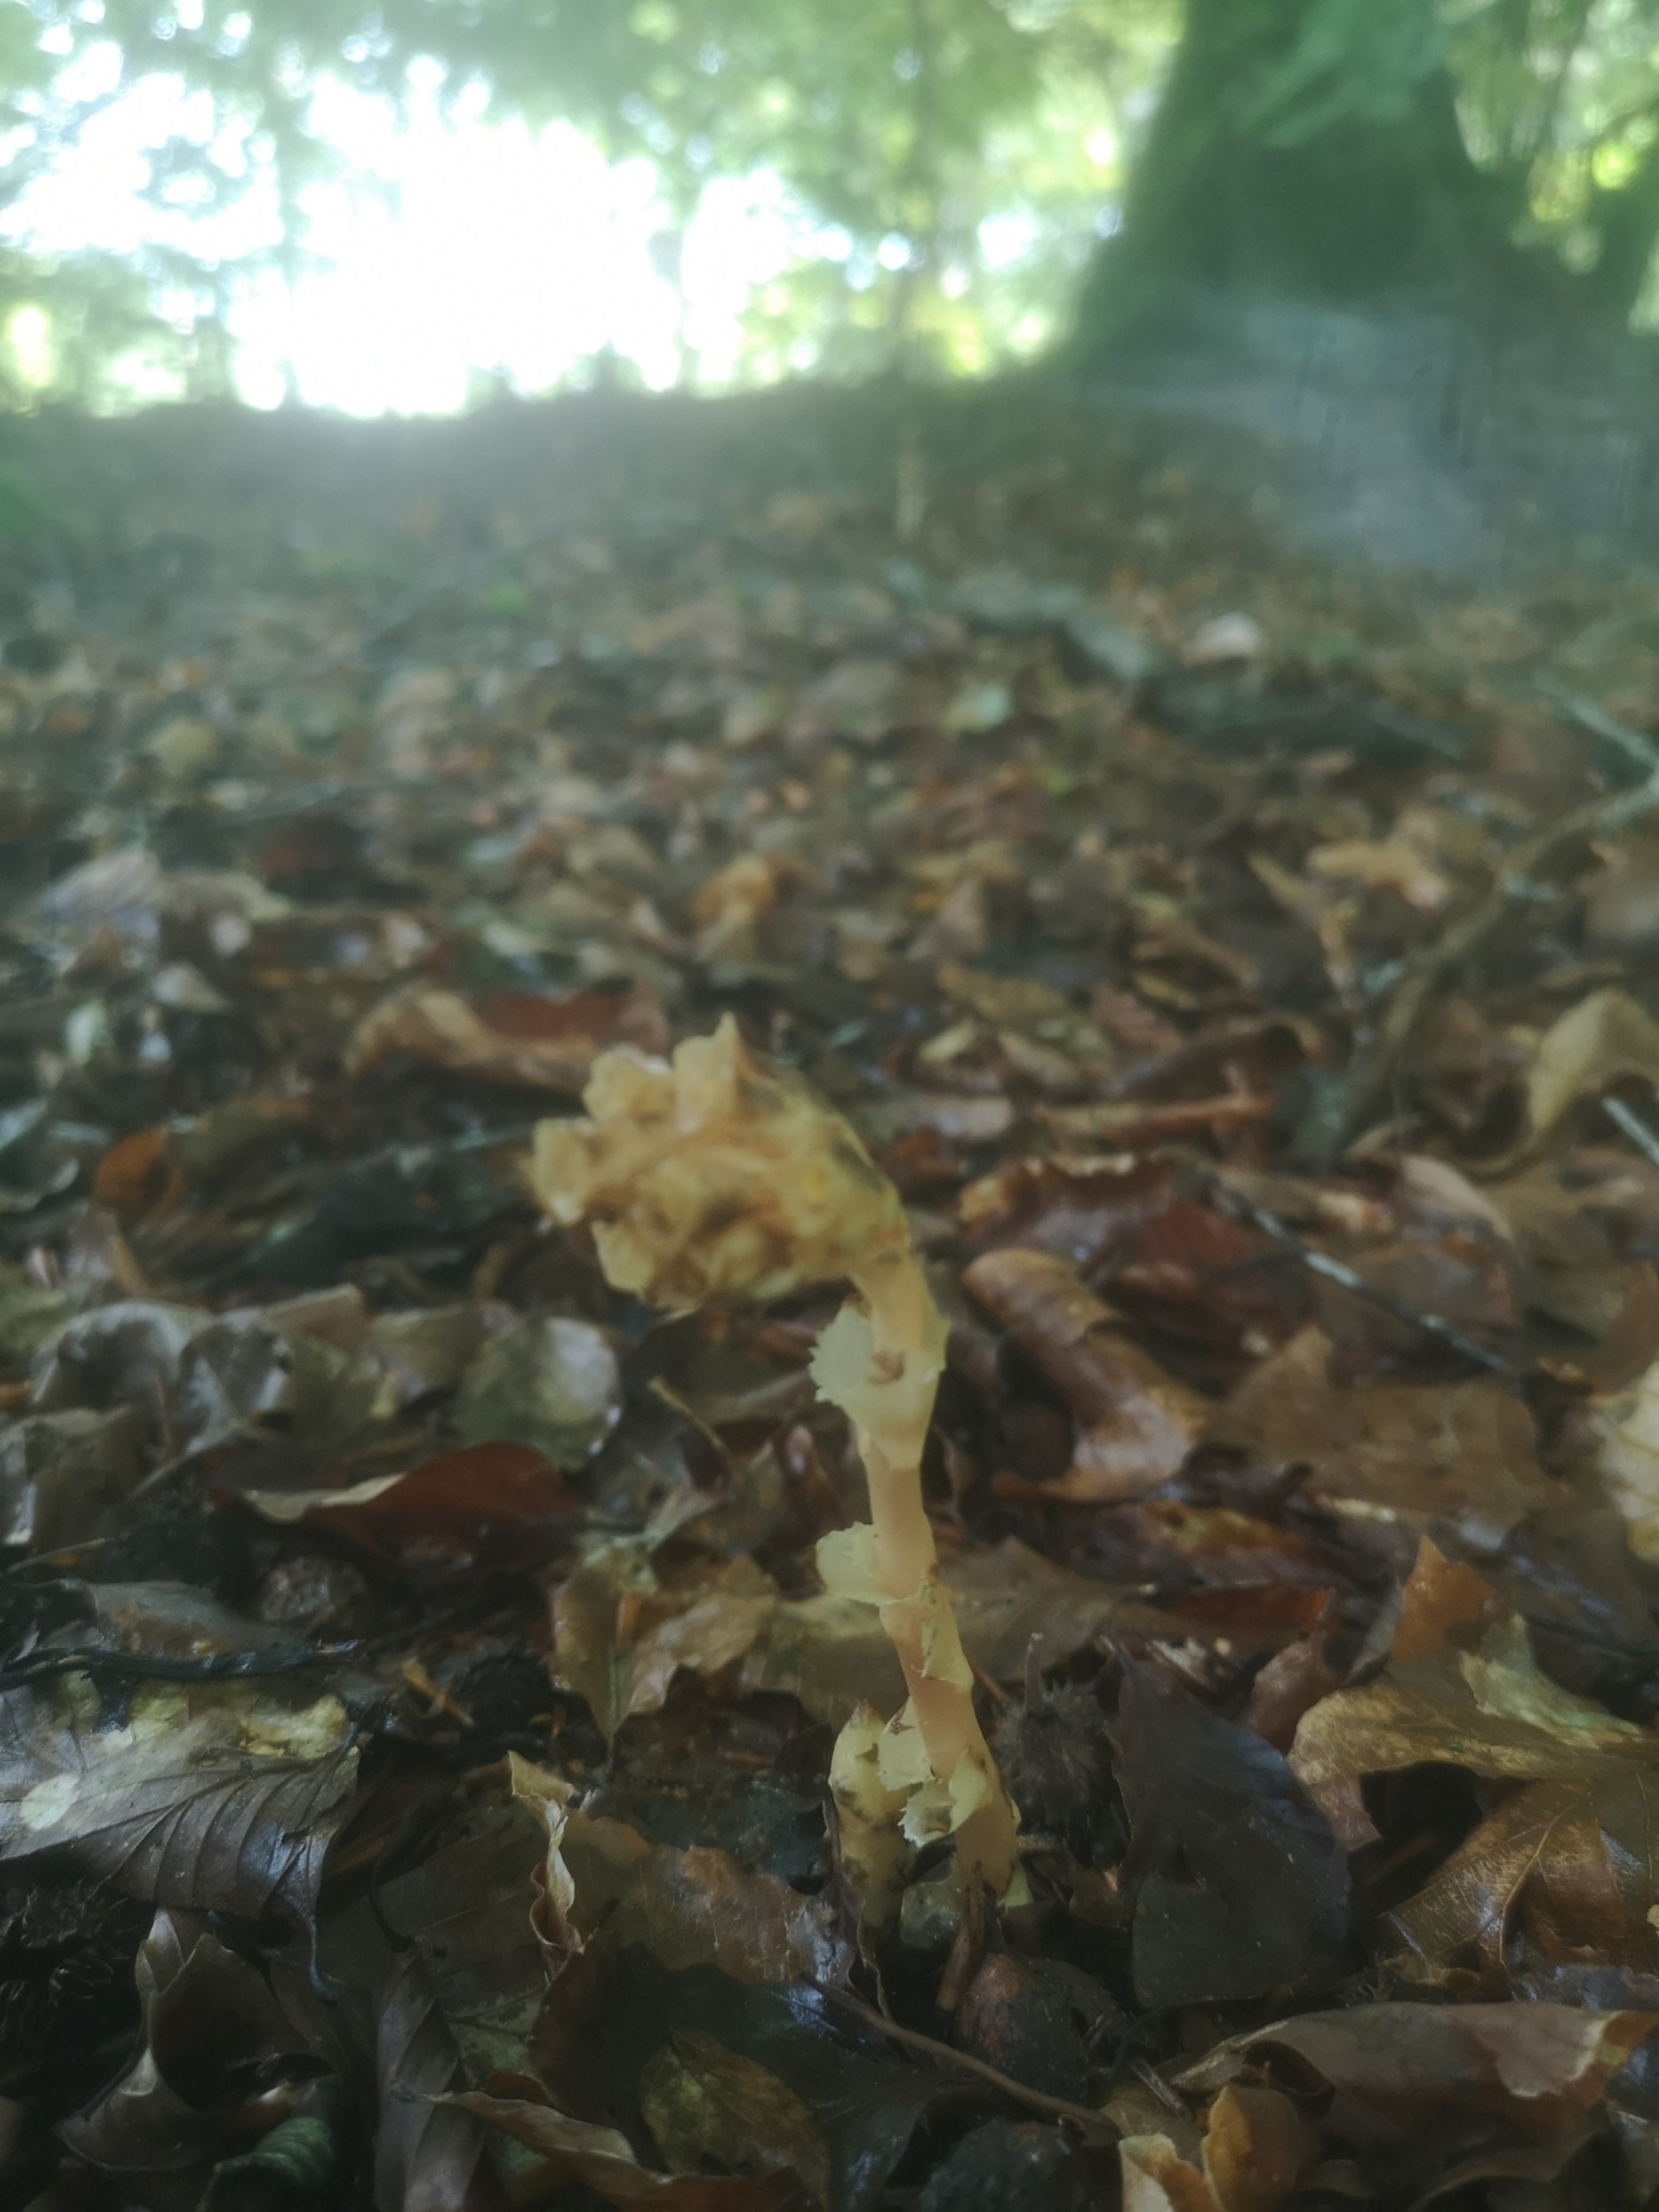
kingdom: Plantae
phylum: Tracheophyta
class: Magnoliopsida
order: Ericales
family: Ericaceae
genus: Hypopitys
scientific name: Hypopitys monotropa
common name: Snylterod
